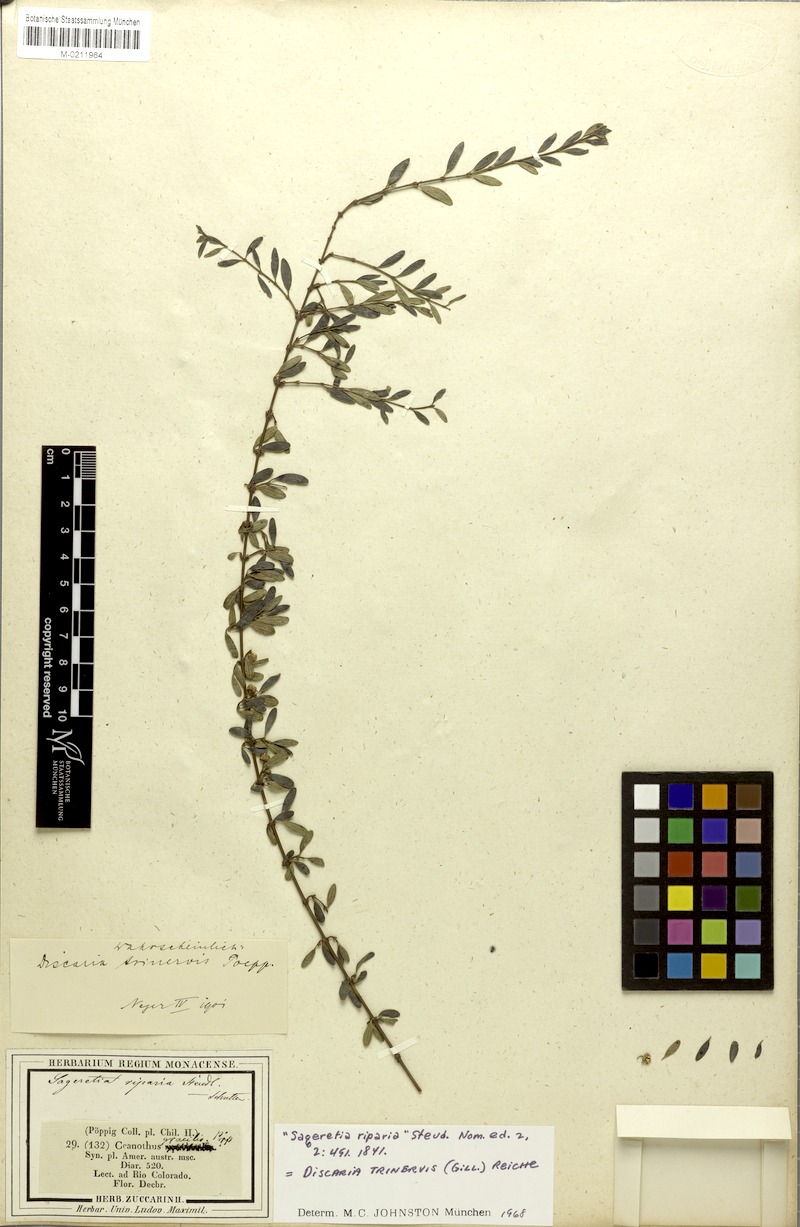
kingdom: Plantae
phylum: Tracheophyta
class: Magnoliopsida
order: Rosales
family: Rhamnaceae
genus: Ochetophila
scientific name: Ochetophila trinervis
